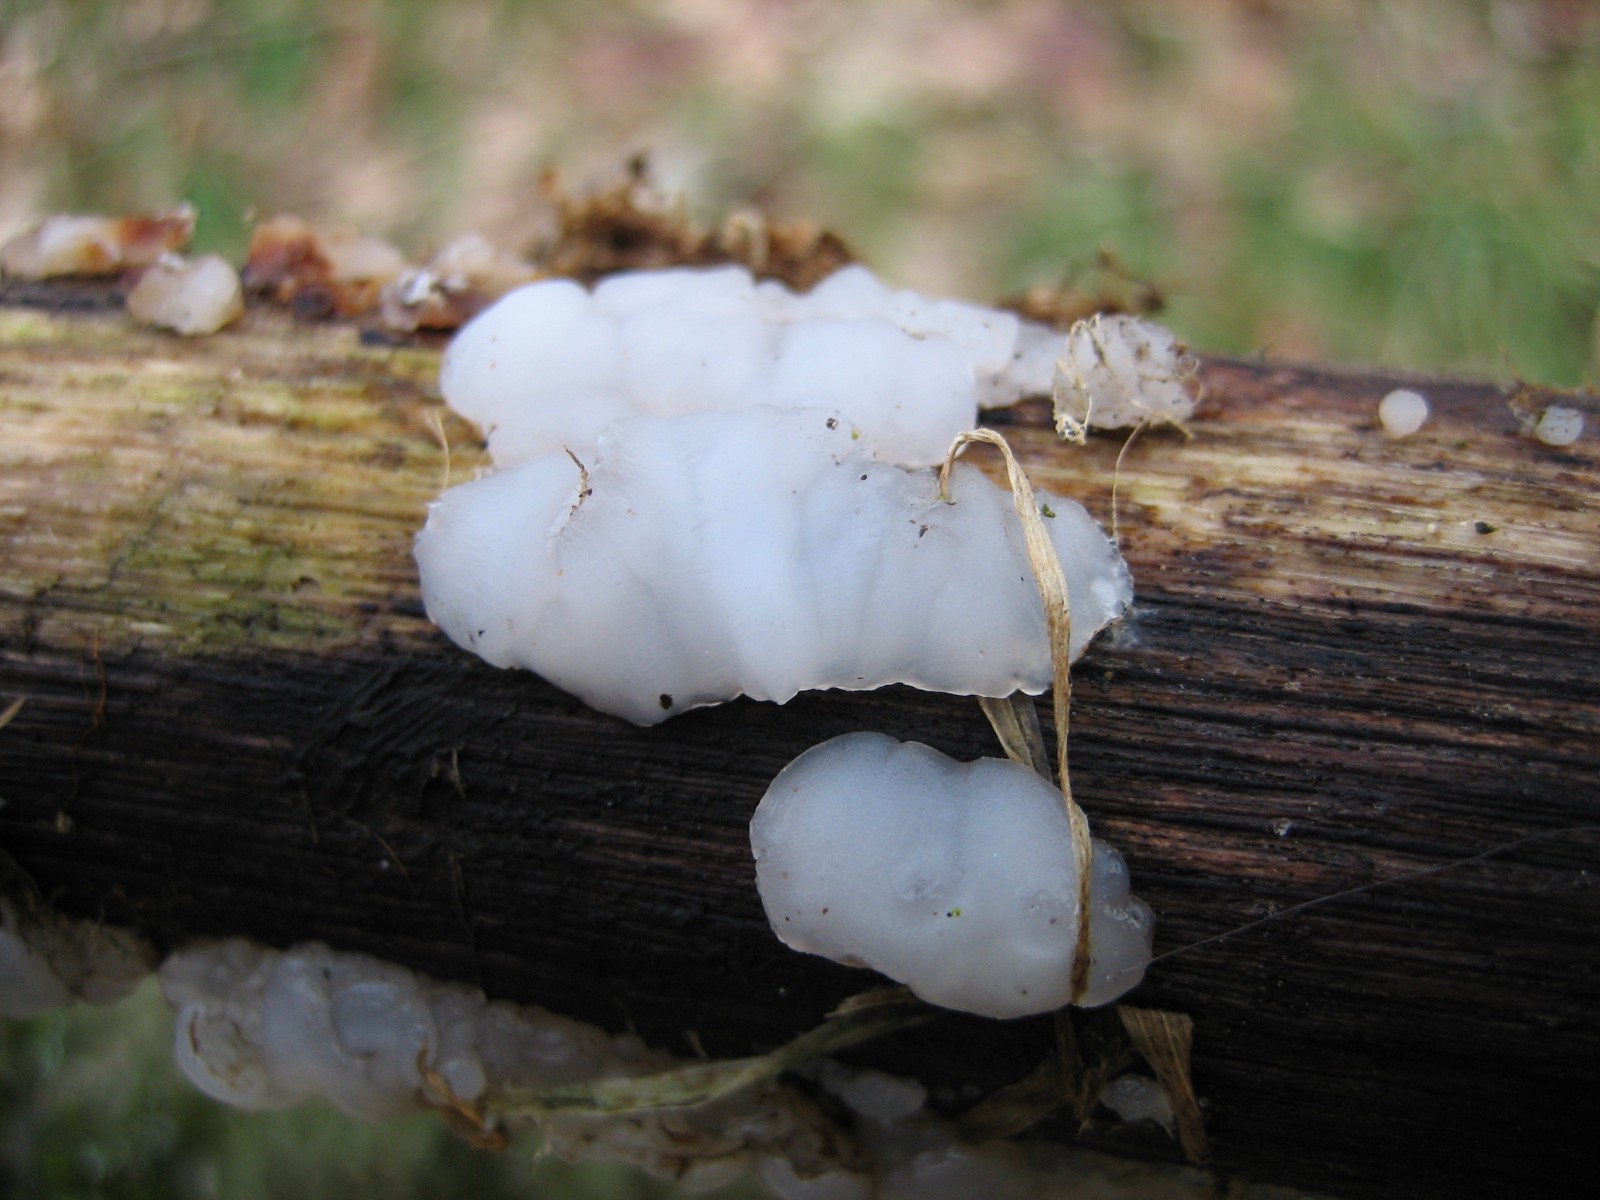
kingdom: Fungi
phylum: Basidiomycota
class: Agaricomycetes
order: Auriculariales
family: Auriculariaceae
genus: Exidia
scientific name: Exidia thuretiana
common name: hvidlig bævretop
